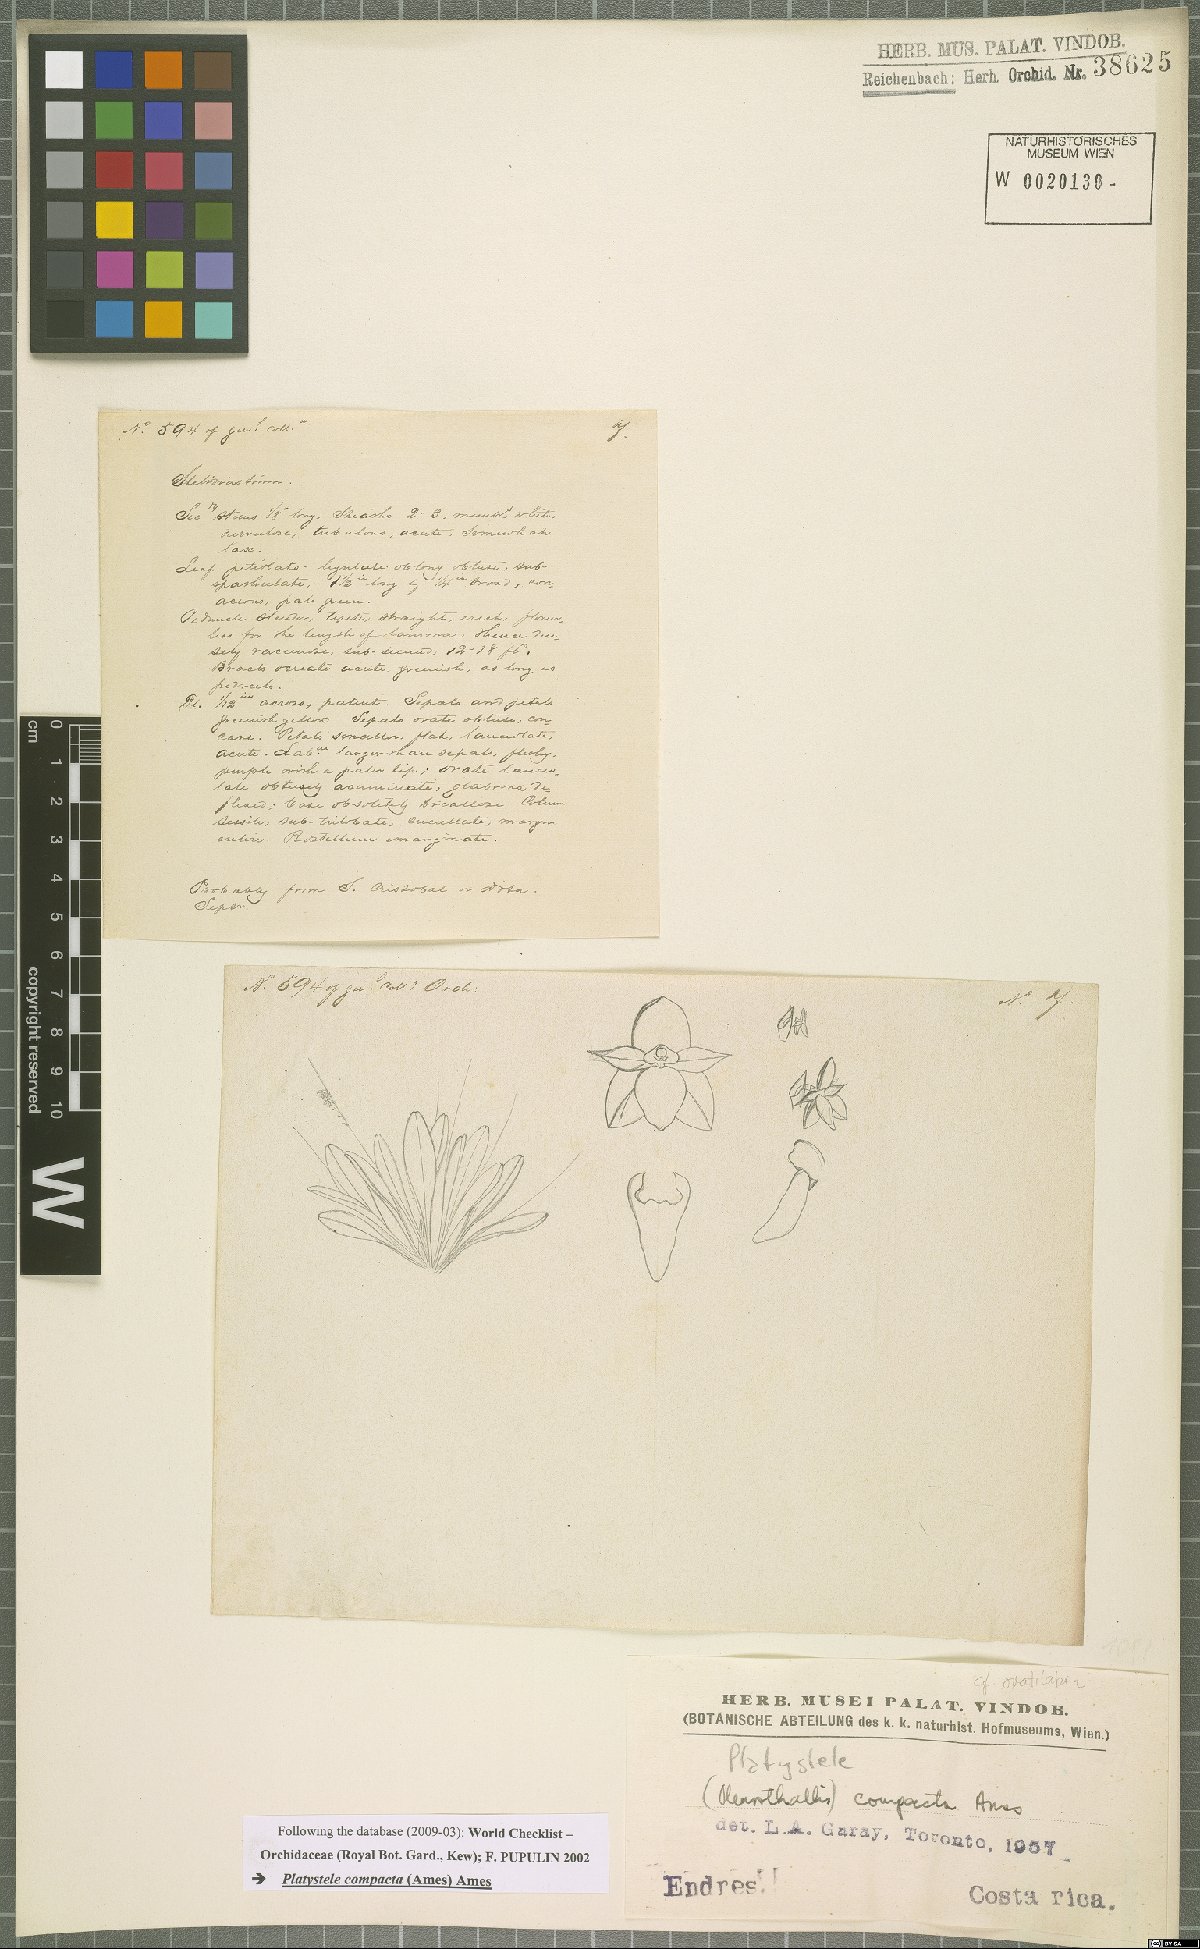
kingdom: Plantae
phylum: Tracheophyta
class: Liliopsida
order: Asparagales
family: Orchidaceae
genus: Platystele
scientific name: Platystele compacta
